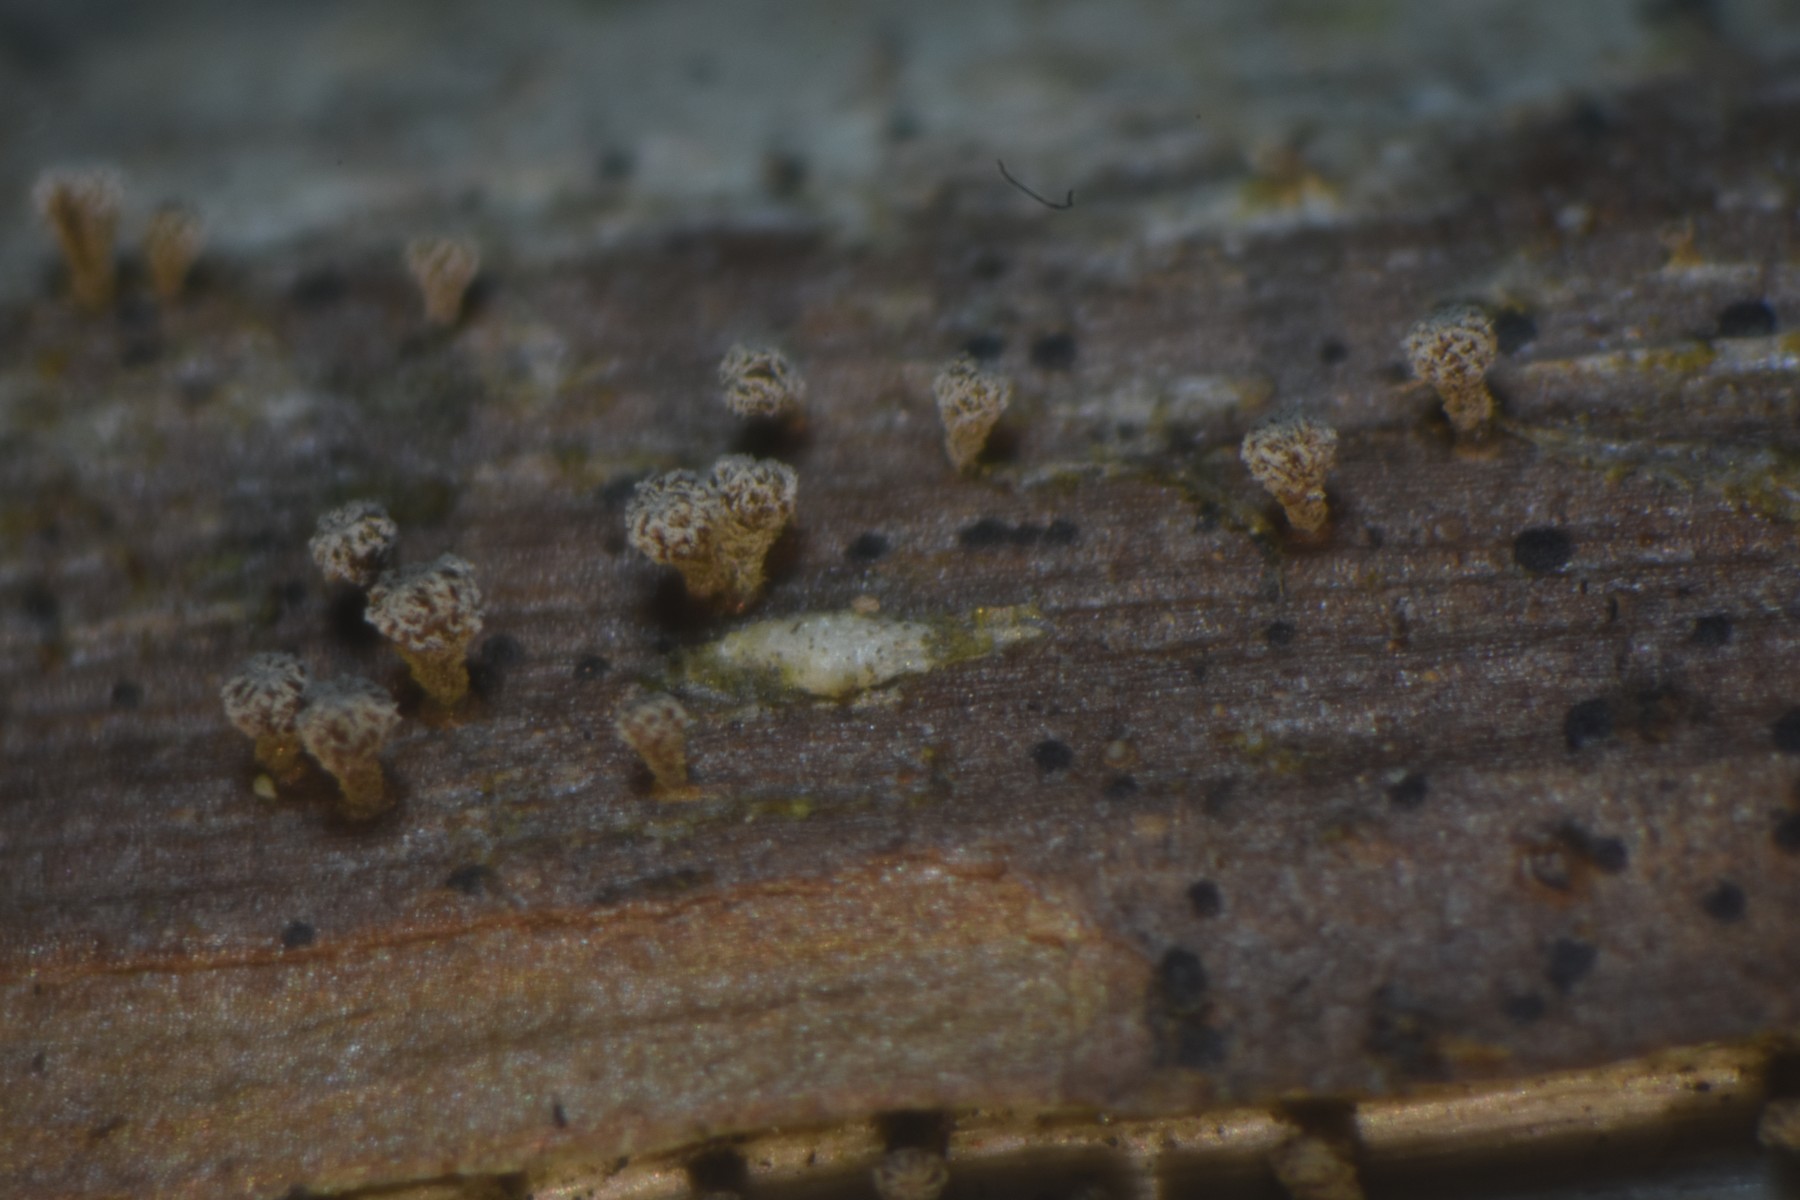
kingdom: Fungi
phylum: Ascomycota
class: Leotiomycetes
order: Helotiales
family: Lachnaceae
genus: Brunnipila
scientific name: Brunnipila clandestina
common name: hindbær-frynseskive
